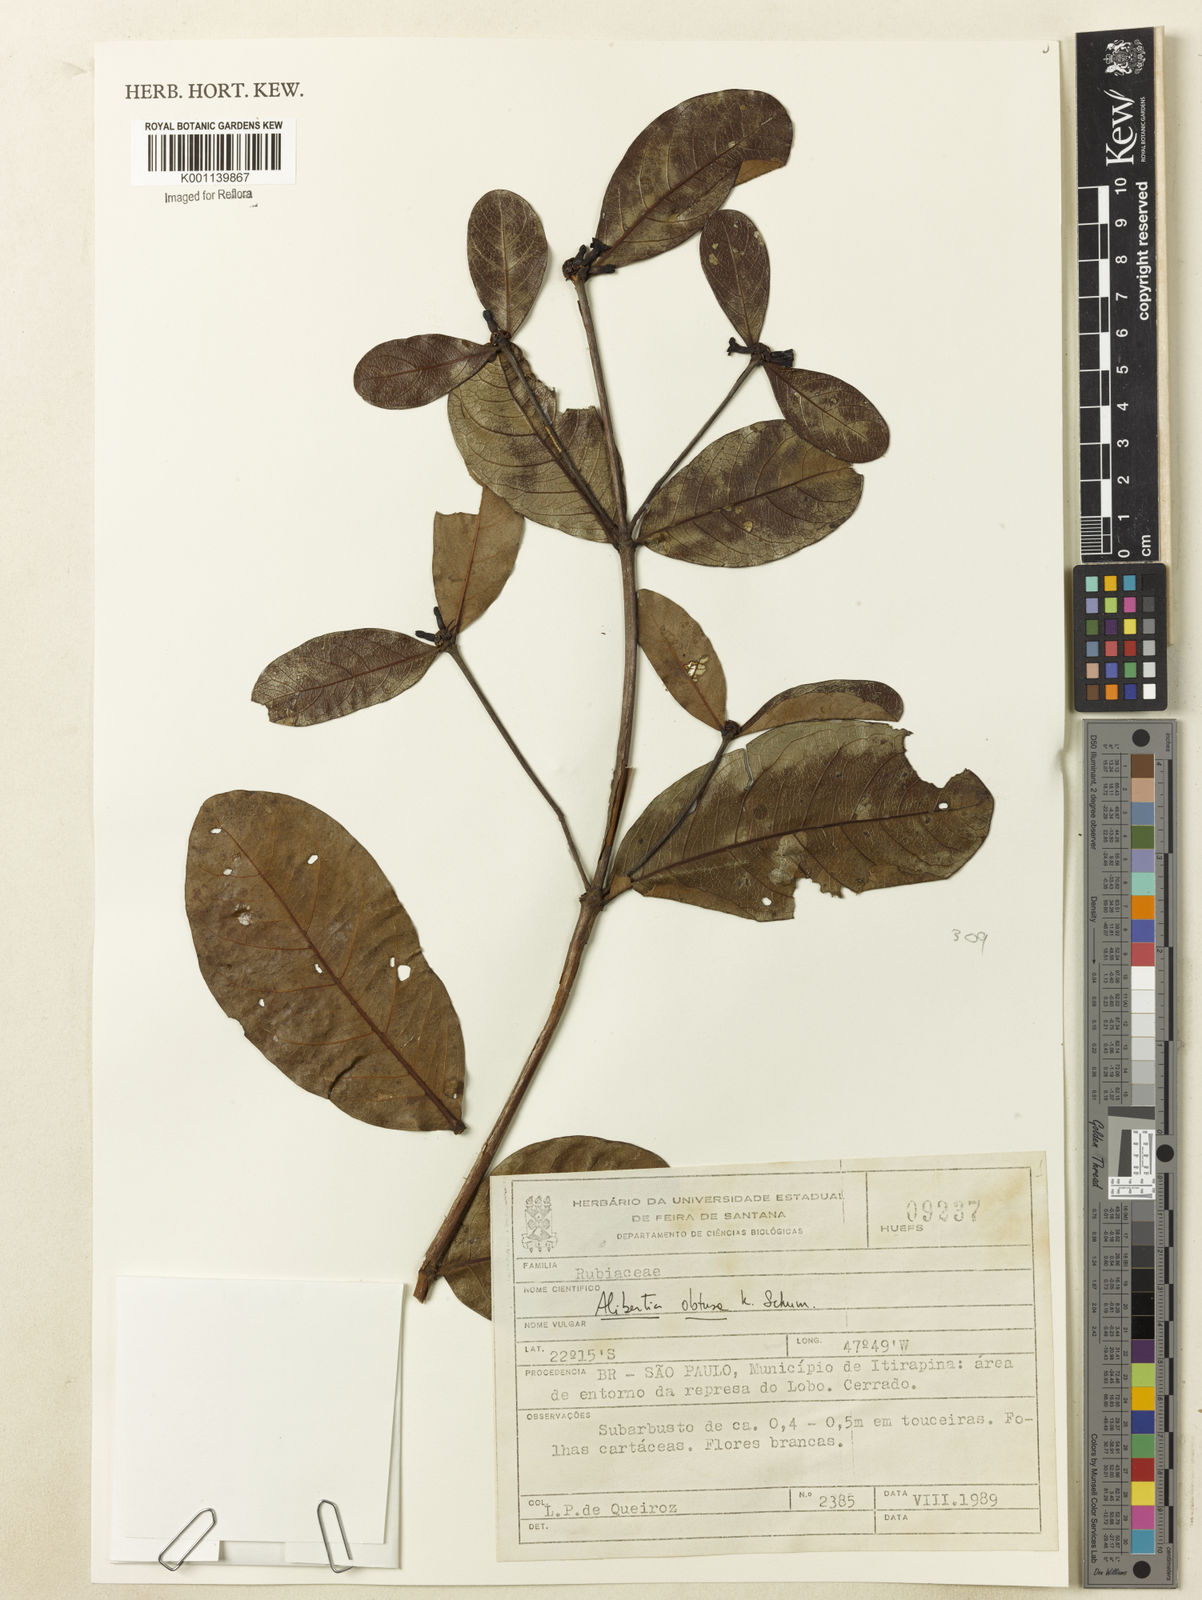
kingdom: Plantae
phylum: Tracheophyta
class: Magnoliopsida
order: Gentianales
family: Rubiaceae
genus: Cordiera
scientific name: Cordiera obtusa
